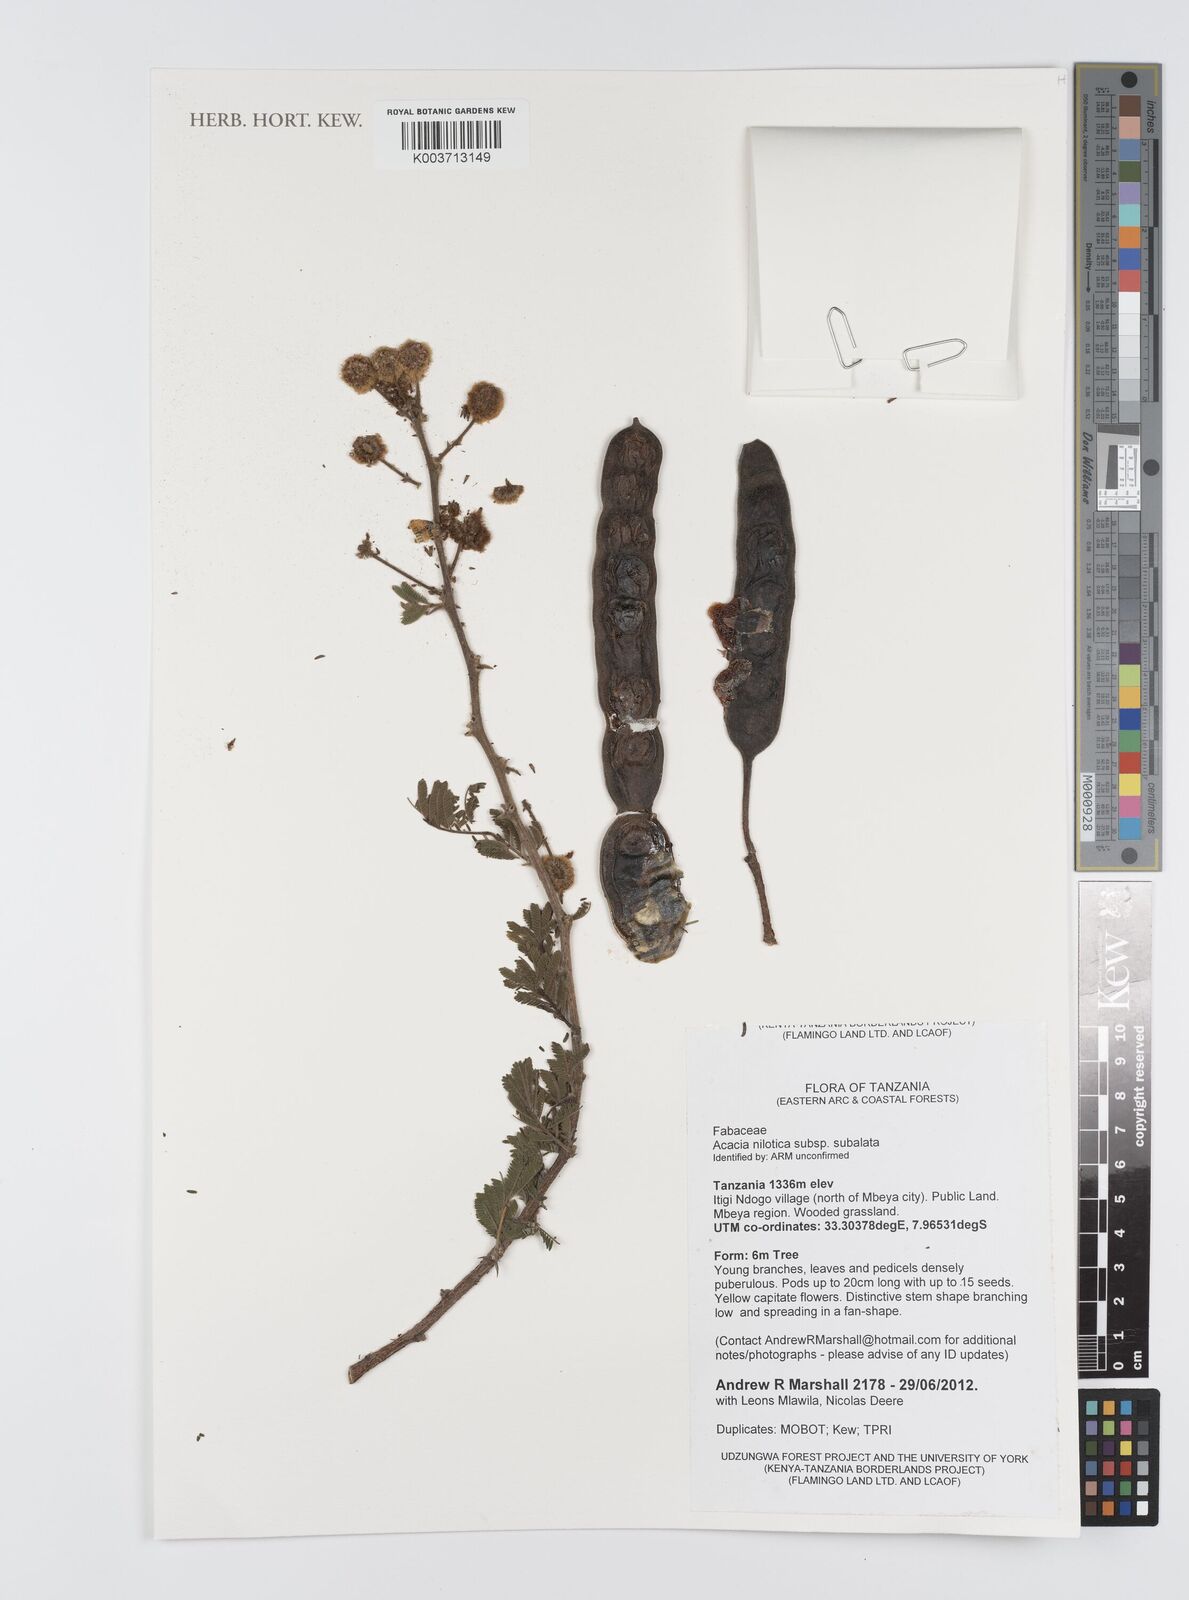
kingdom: Plantae
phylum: Tracheophyta
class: Magnoliopsida
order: Fabales
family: Fabaceae
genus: Vachellia
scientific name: Vachellia nilotica
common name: Arabic gumtree
